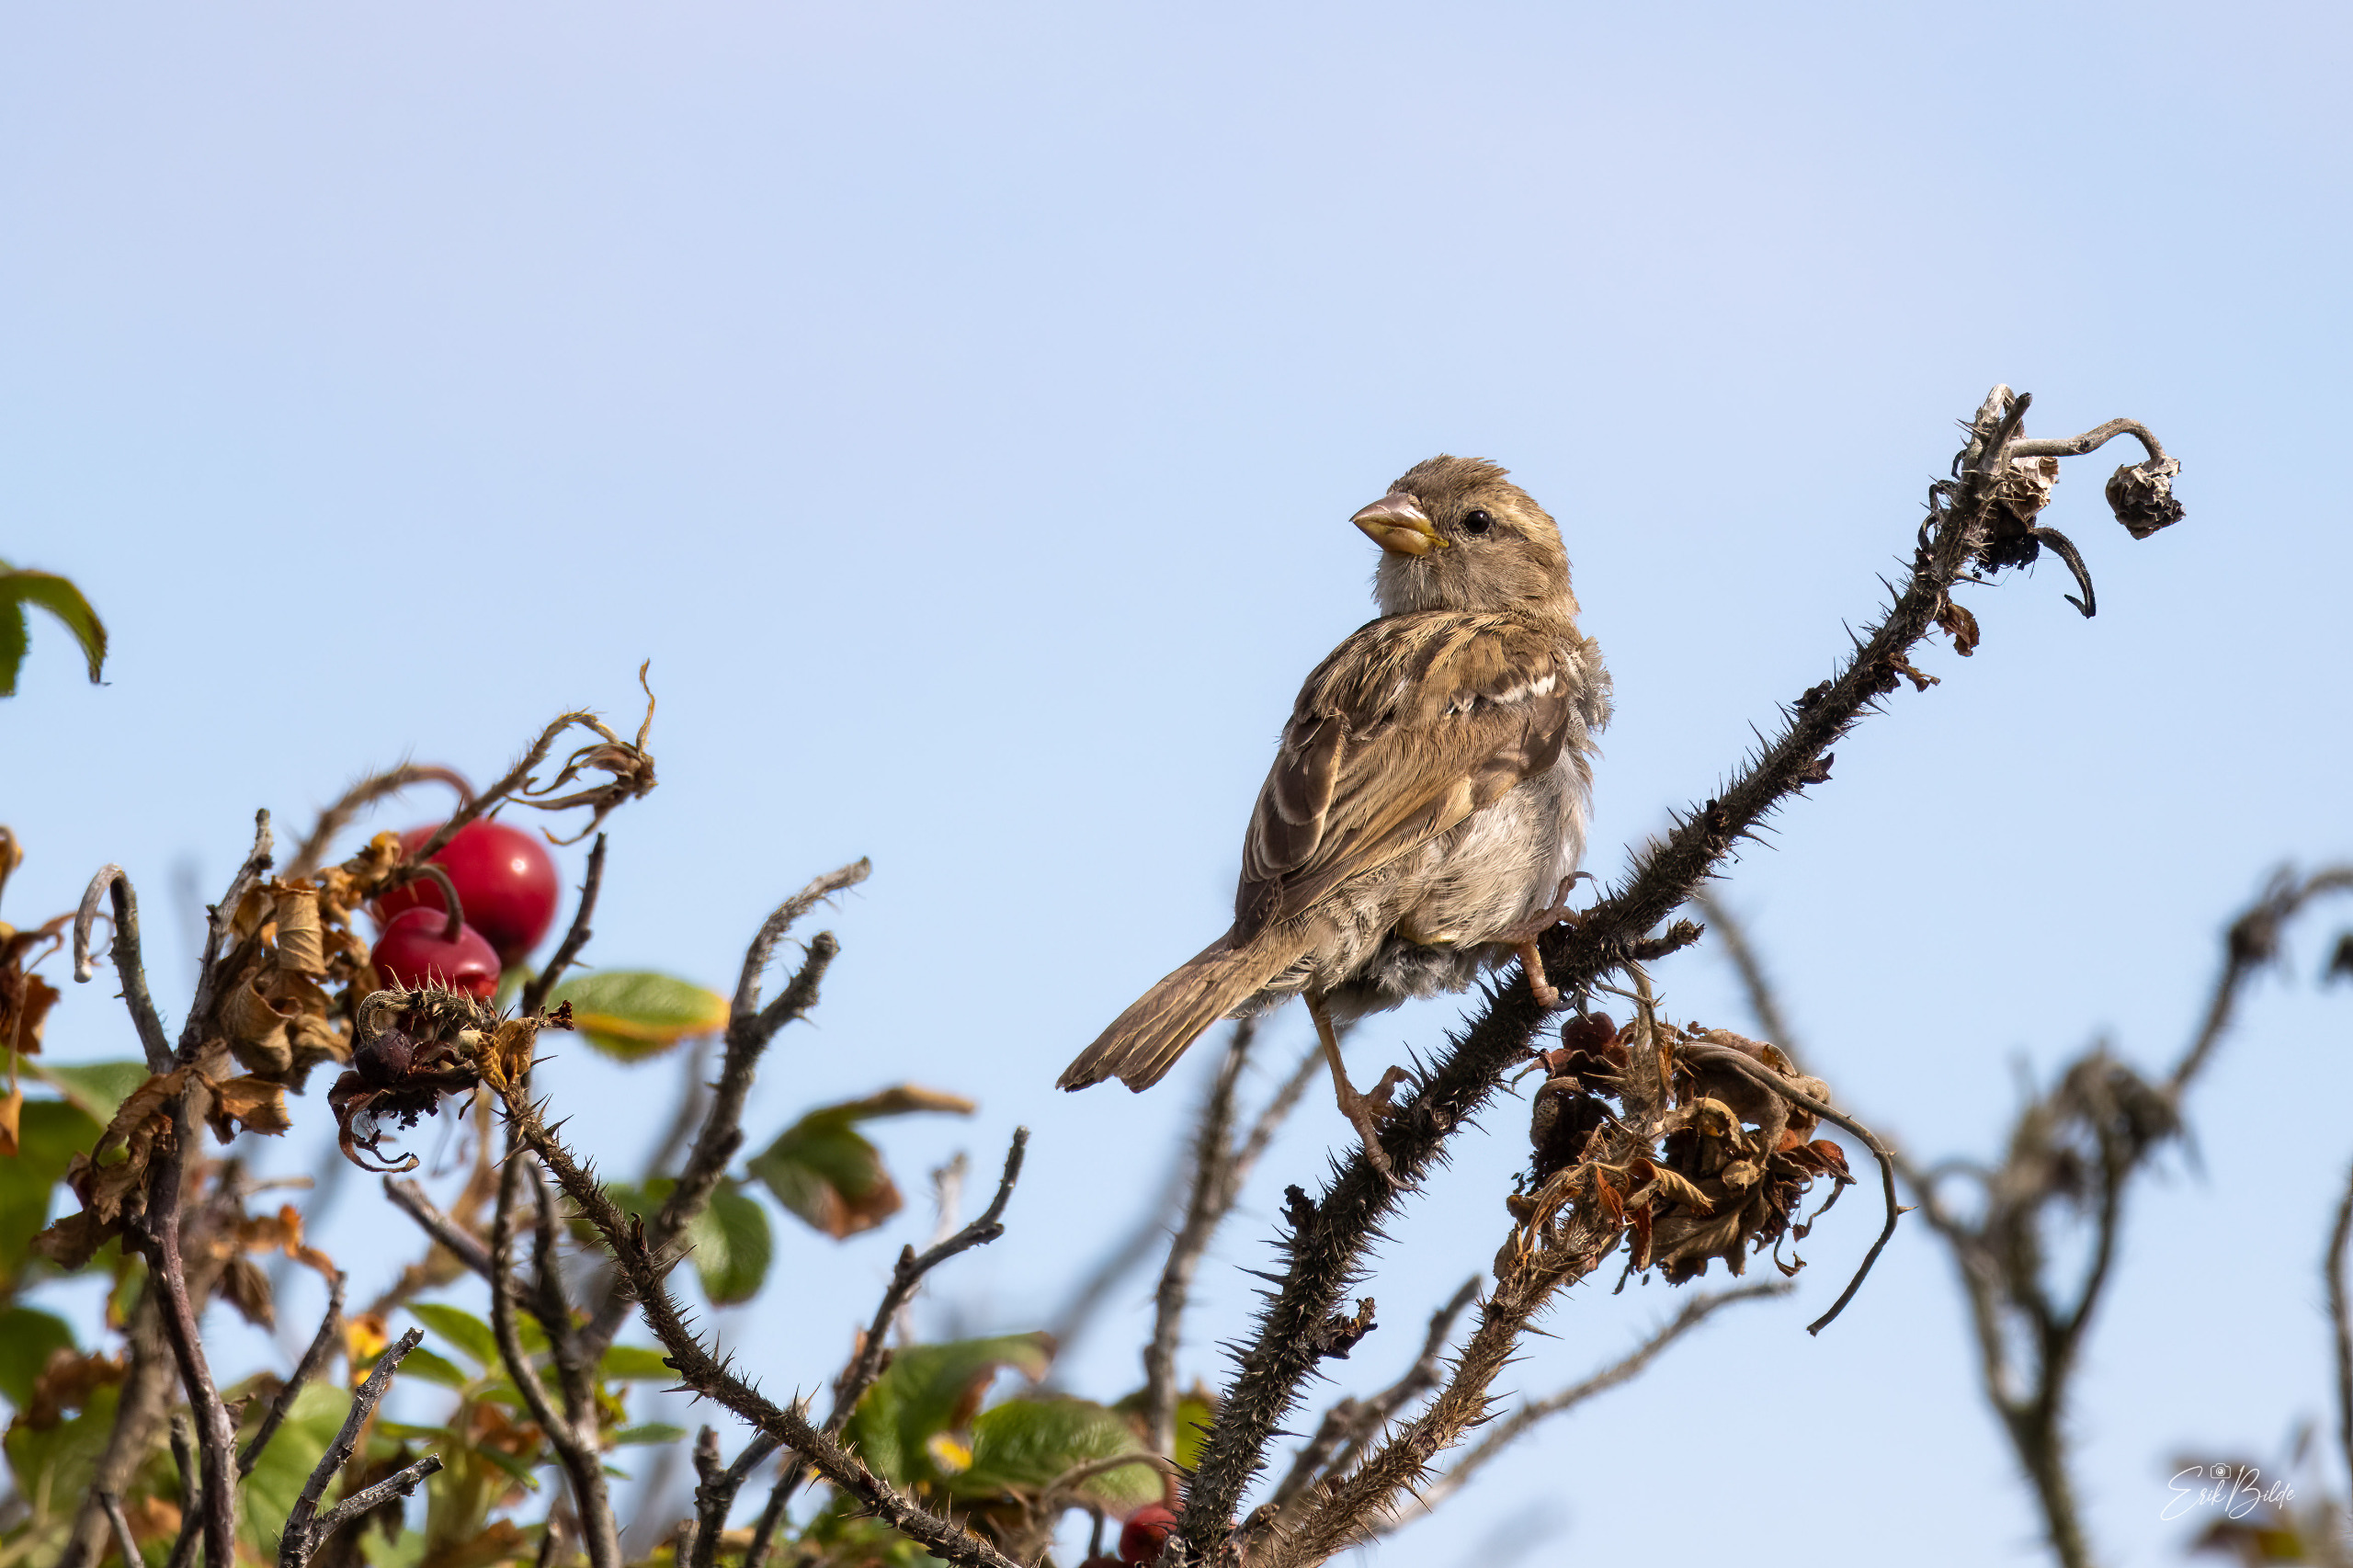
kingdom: Animalia
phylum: Chordata
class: Aves
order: Passeriformes
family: Passeridae
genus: Passer
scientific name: Passer domesticus
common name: Gråspurv
